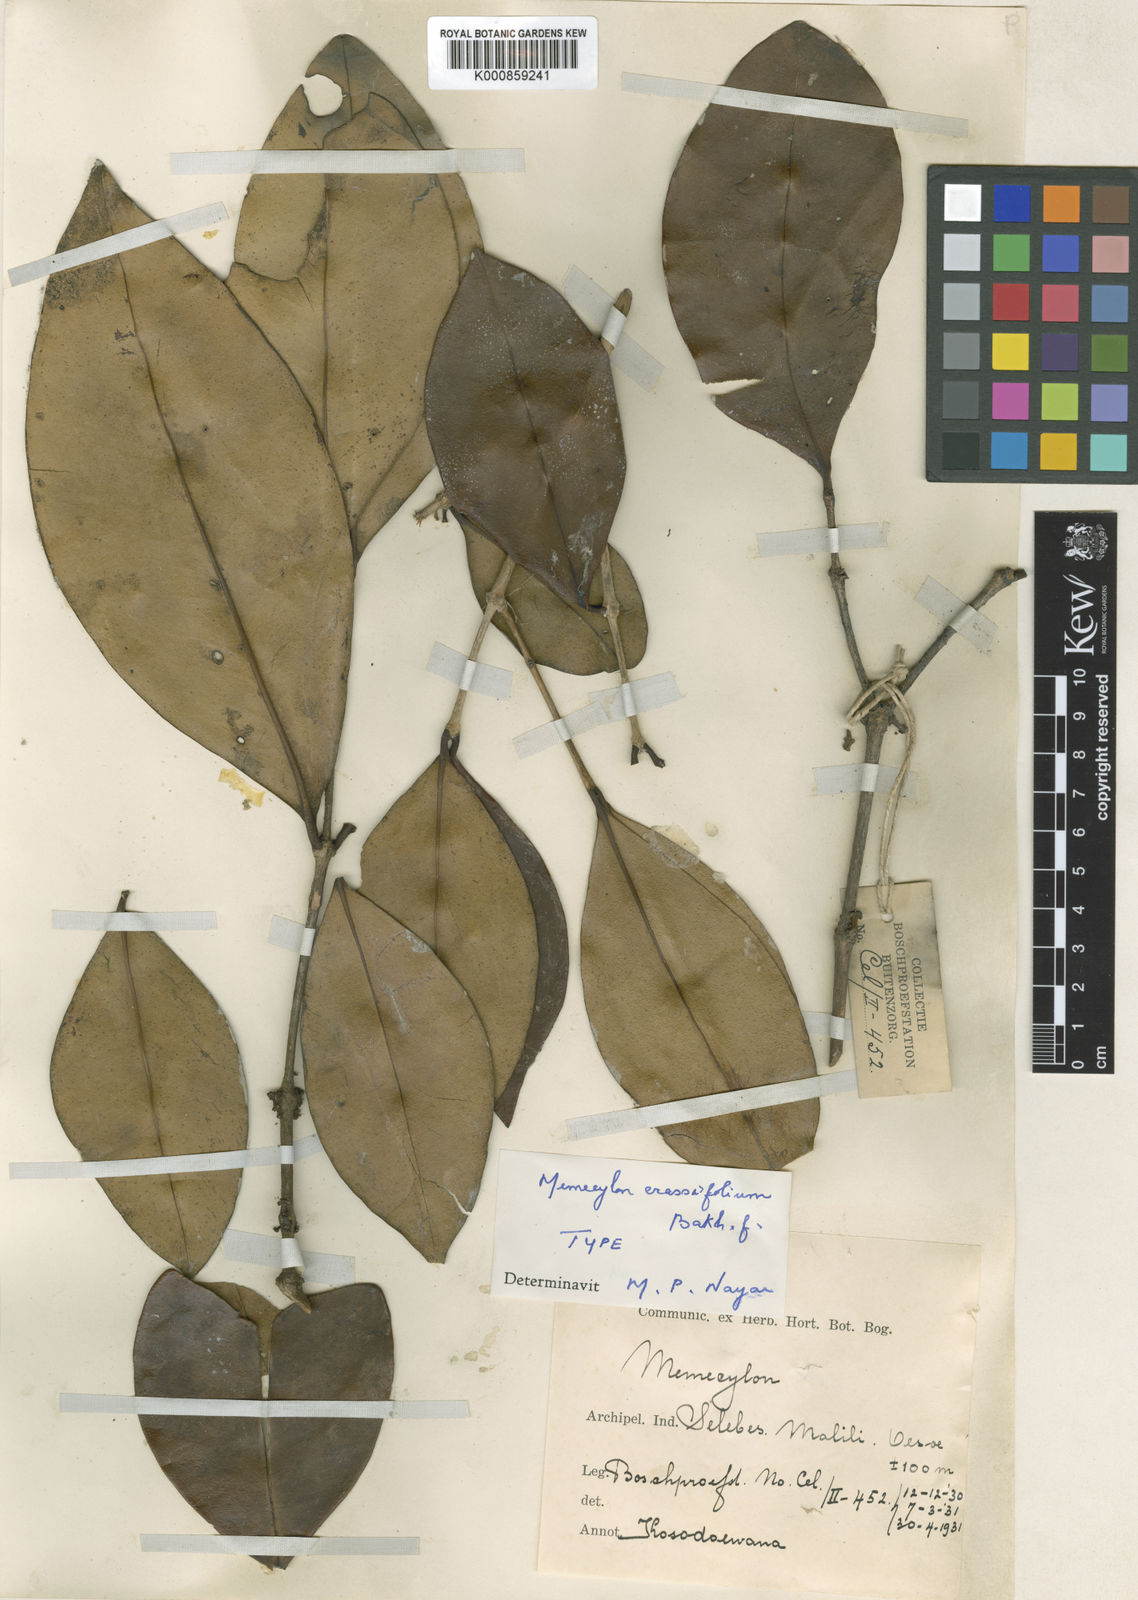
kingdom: Plantae
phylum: Tracheophyta
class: Magnoliopsida
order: Myrtales
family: Melastomataceae
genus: Memecylon
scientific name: Memecylon crassifolium
